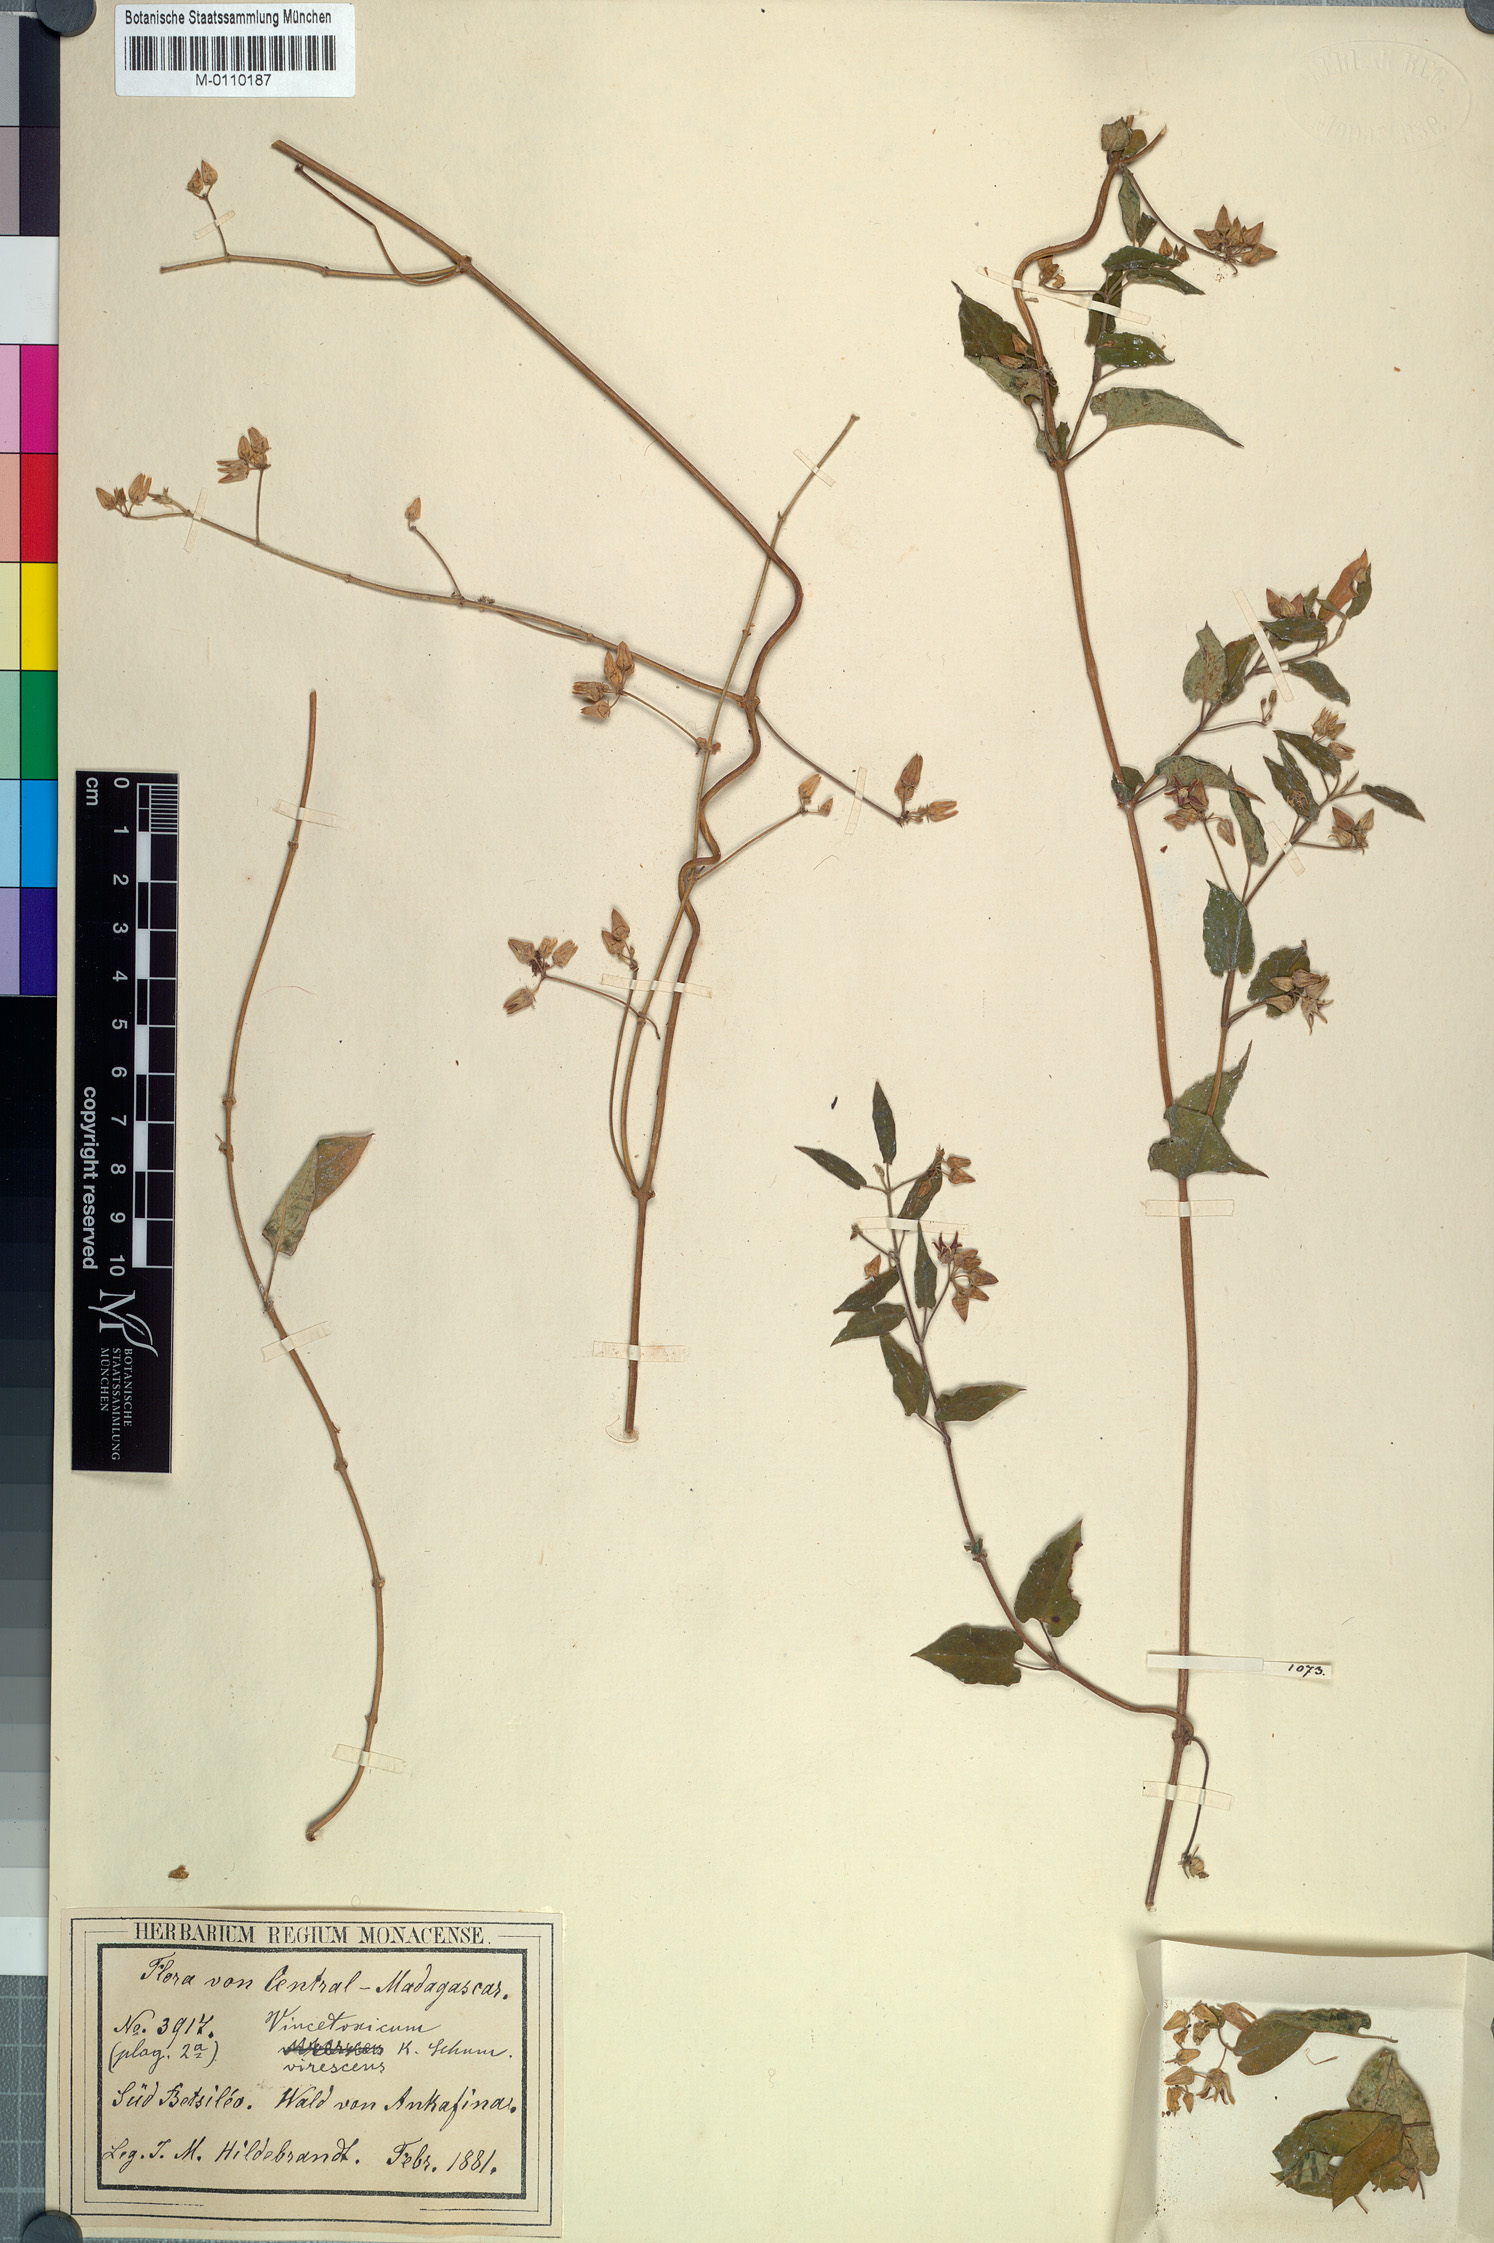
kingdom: Plantae
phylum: Tracheophyta
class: Magnoliopsida
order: Gentianales
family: Apocynaceae
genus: Cynanchum
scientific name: Cynanchum leucanthum
